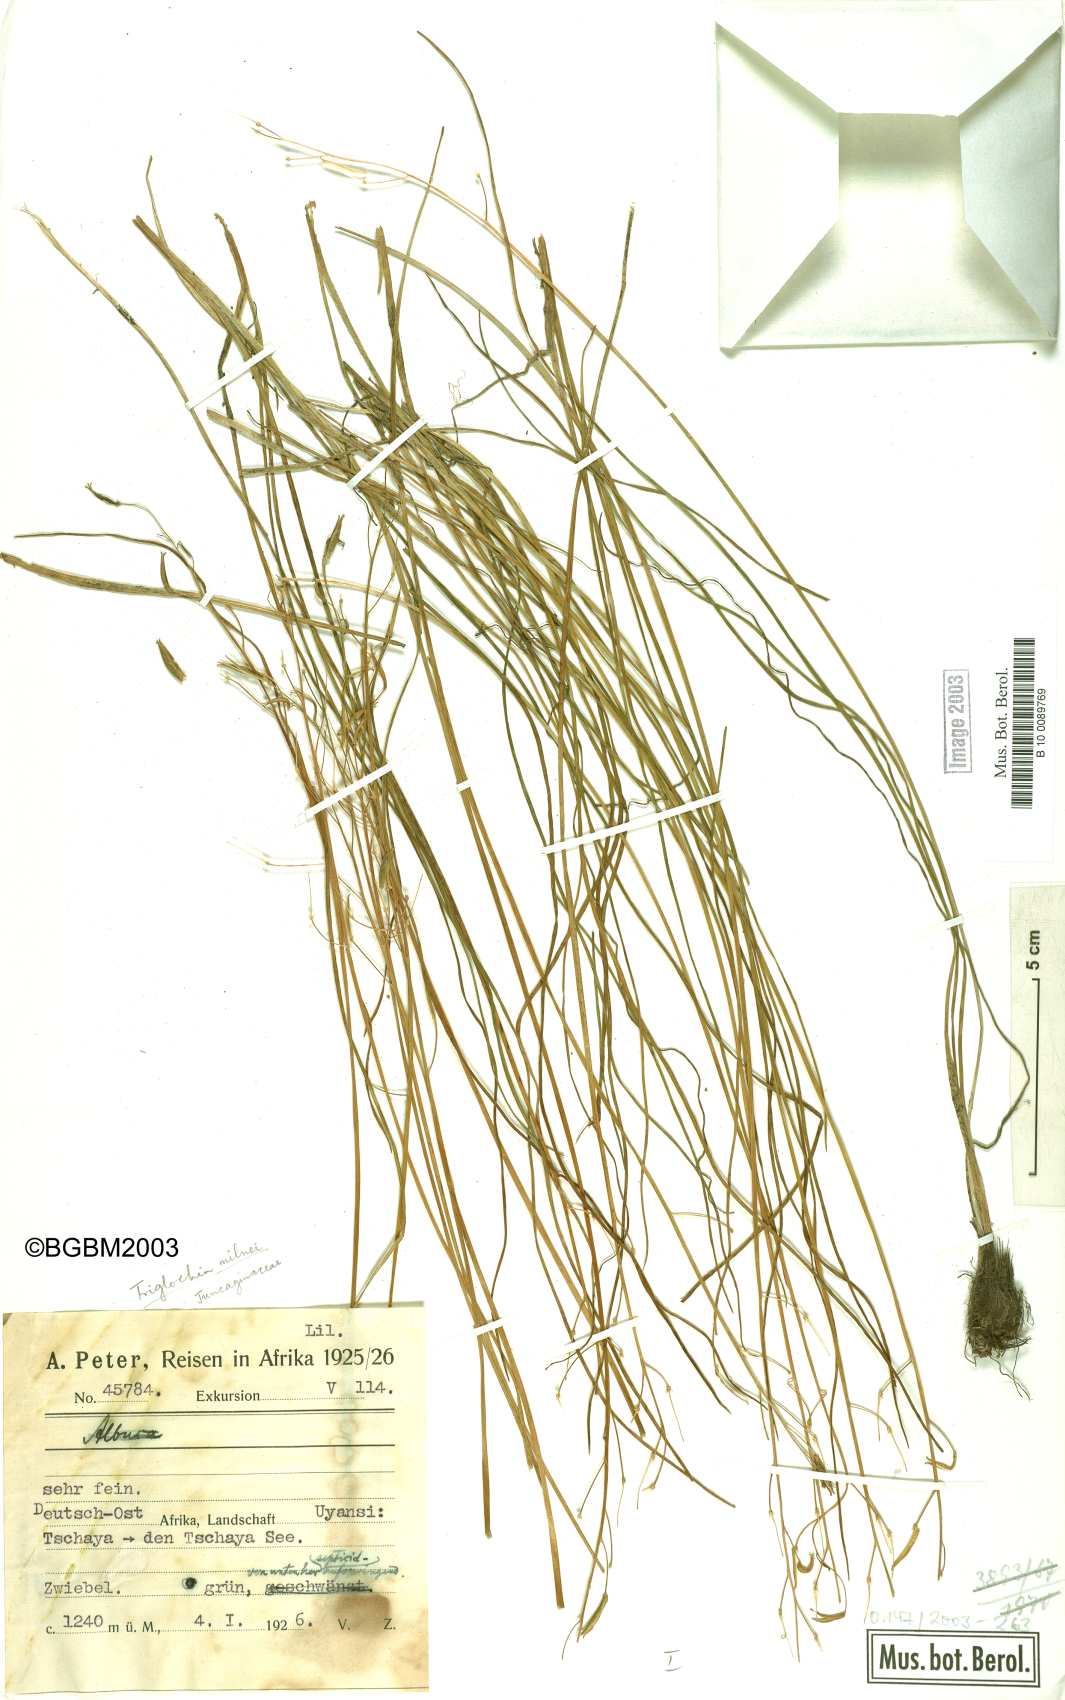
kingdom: Plantae
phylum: Tracheophyta
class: Liliopsida
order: Alismatales
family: Juncaginaceae
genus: Triglochin
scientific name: Triglochin milnei
